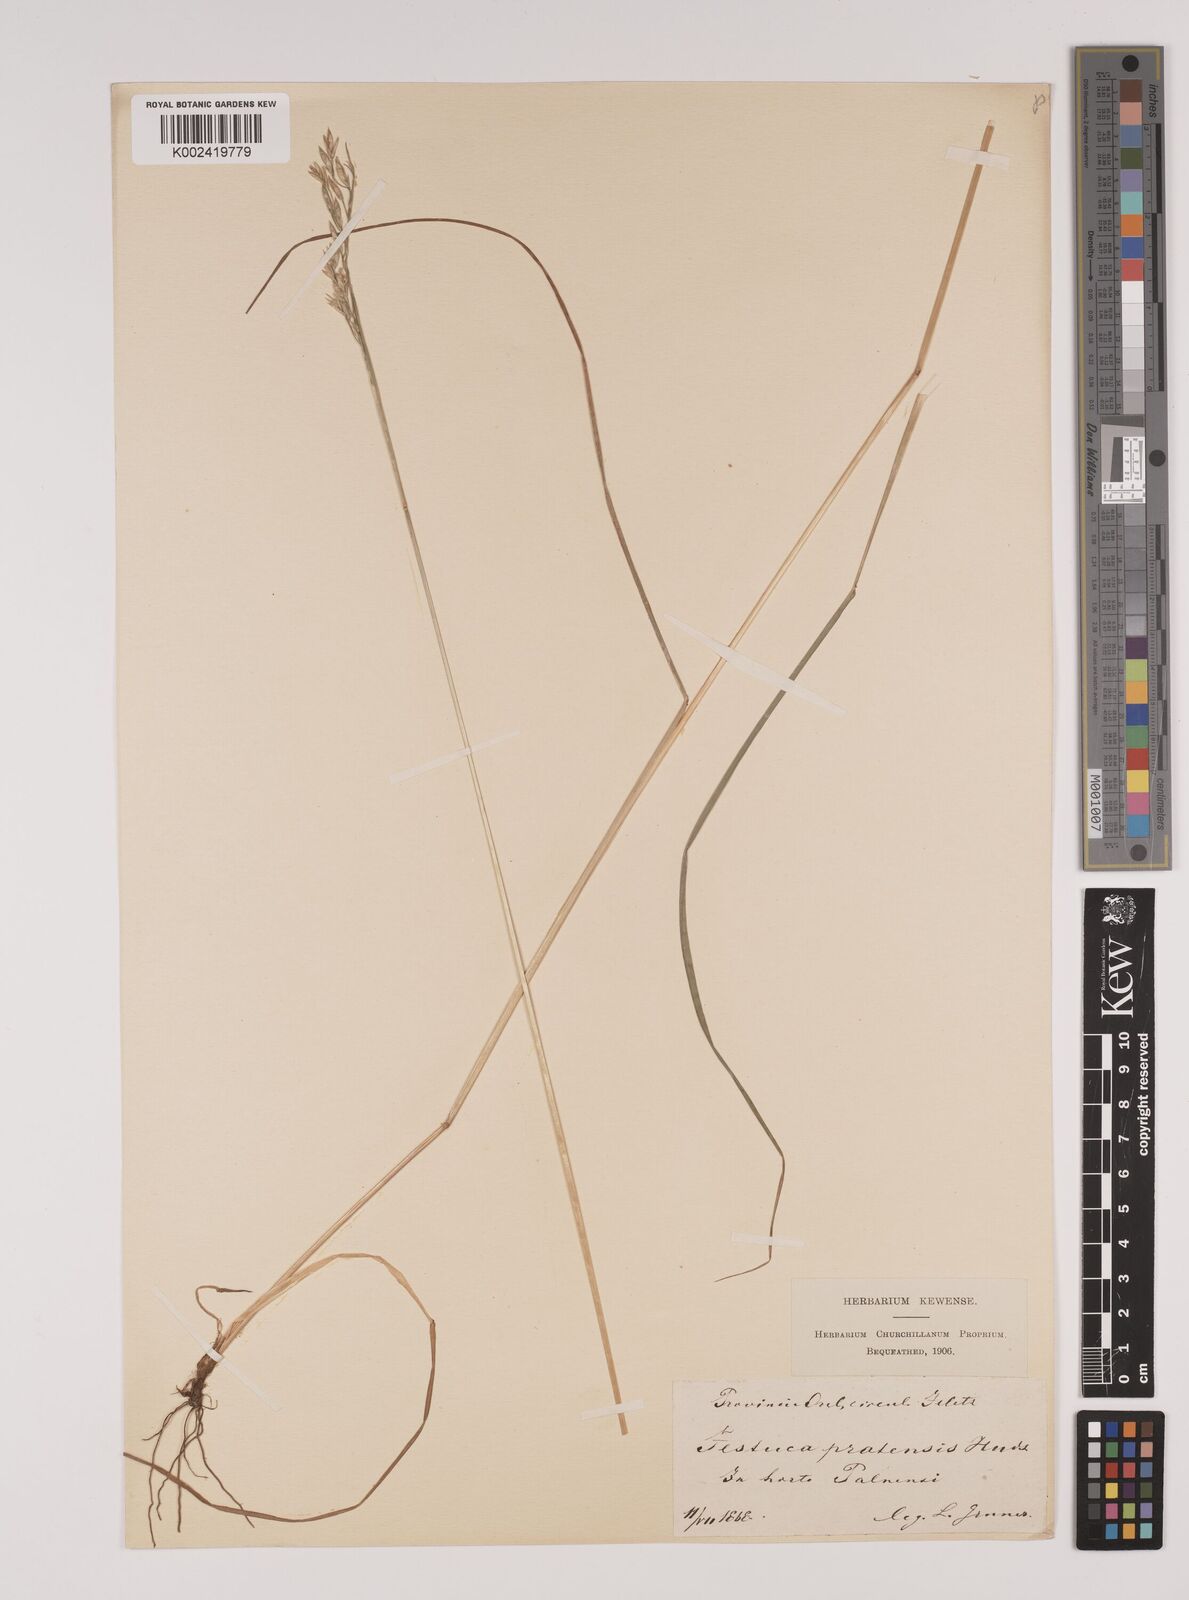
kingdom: Plantae
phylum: Tracheophyta
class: Liliopsida
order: Poales
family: Poaceae
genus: Lolium
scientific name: Lolium pratense
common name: Dover grass
